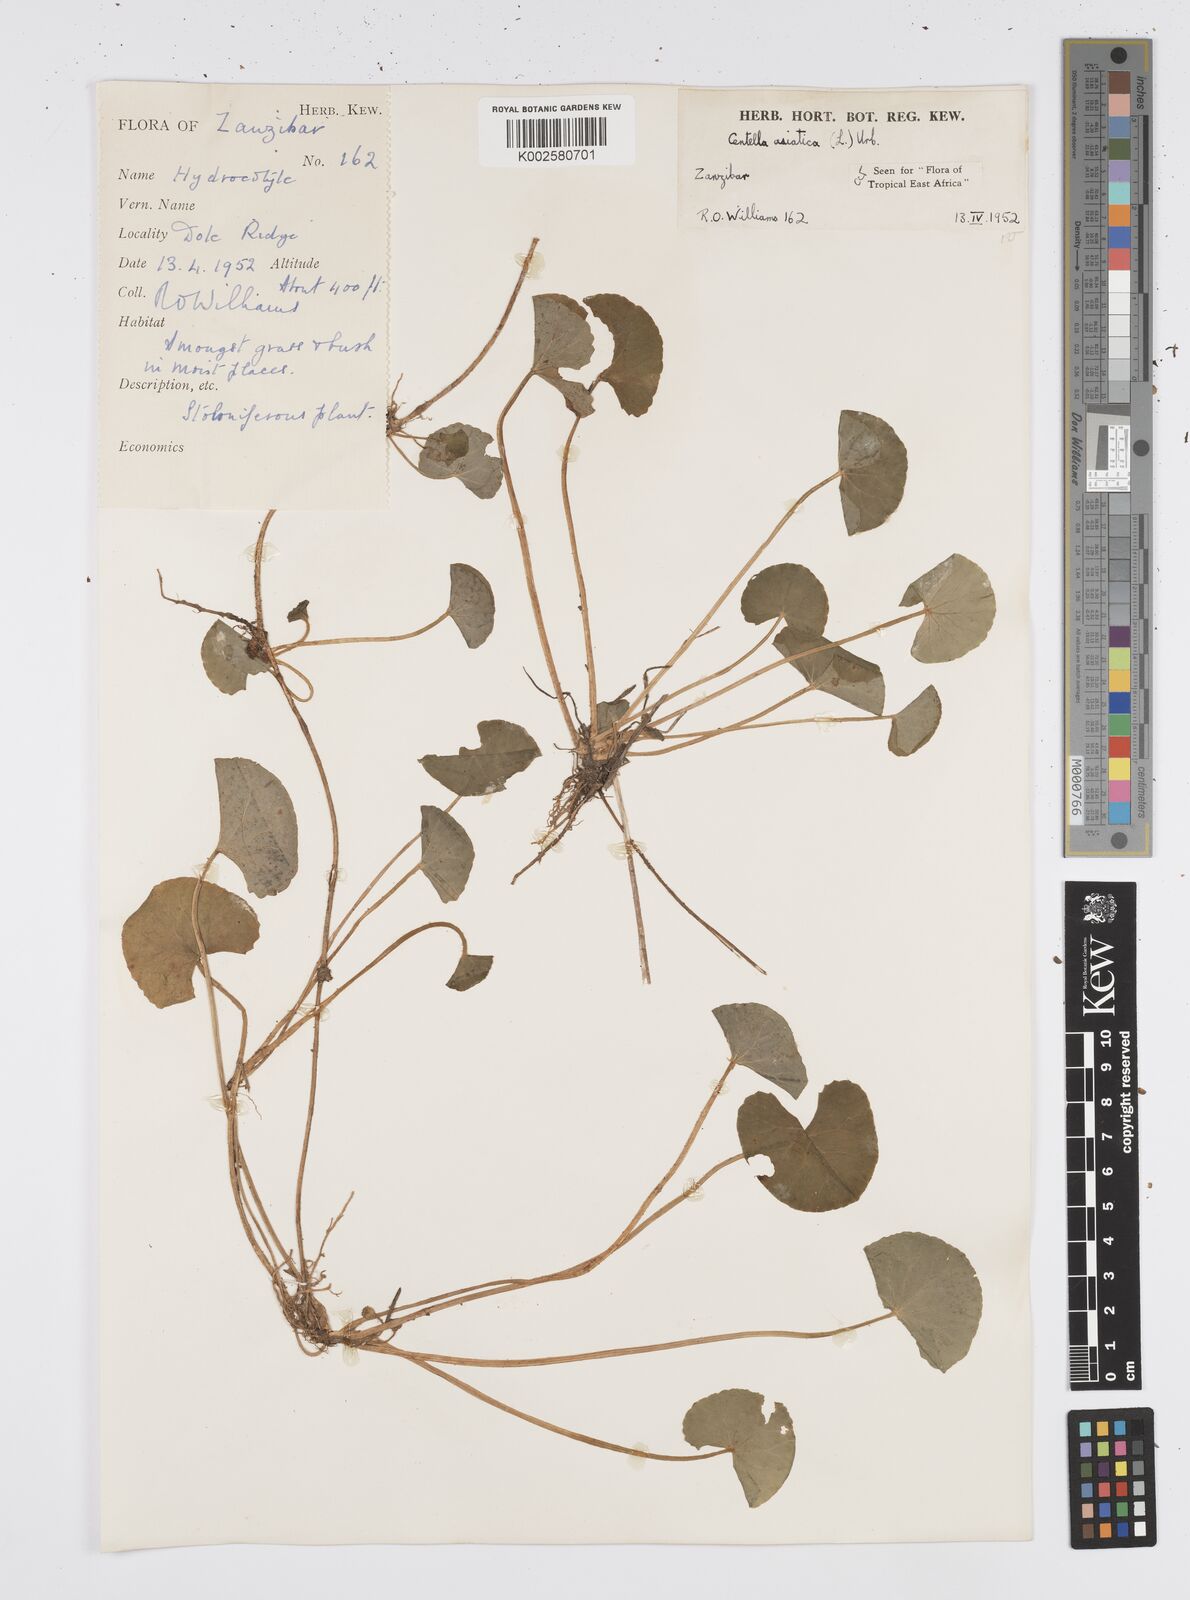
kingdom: Plantae
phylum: Tracheophyta
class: Magnoliopsida
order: Apiales
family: Apiaceae
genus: Centella
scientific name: Centella asiatica
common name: Spadeleaf
